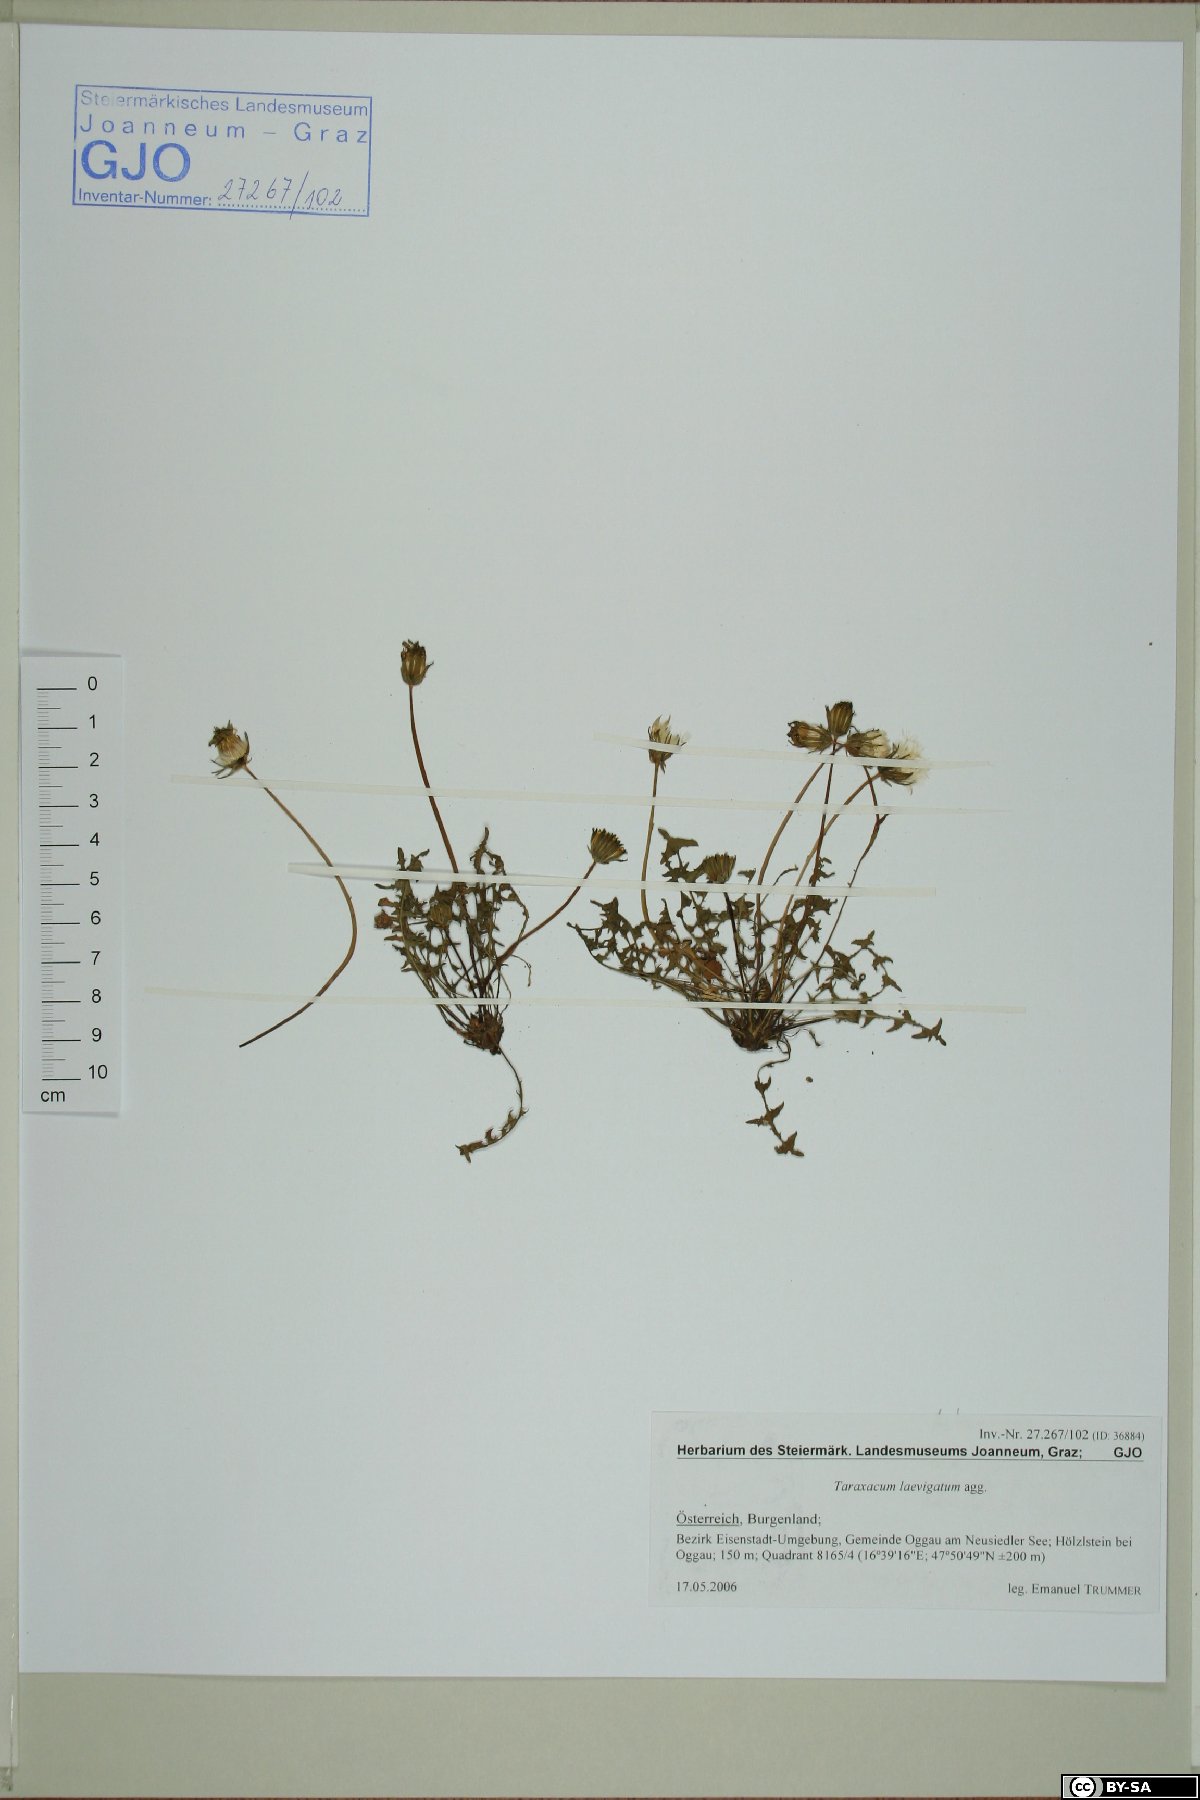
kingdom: Plantae
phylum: Tracheophyta
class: Magnoliopsida
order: Asterales
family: Asteraceae
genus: Taraxacum
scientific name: Taraxacum erythrospermum
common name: Rock dandelion
